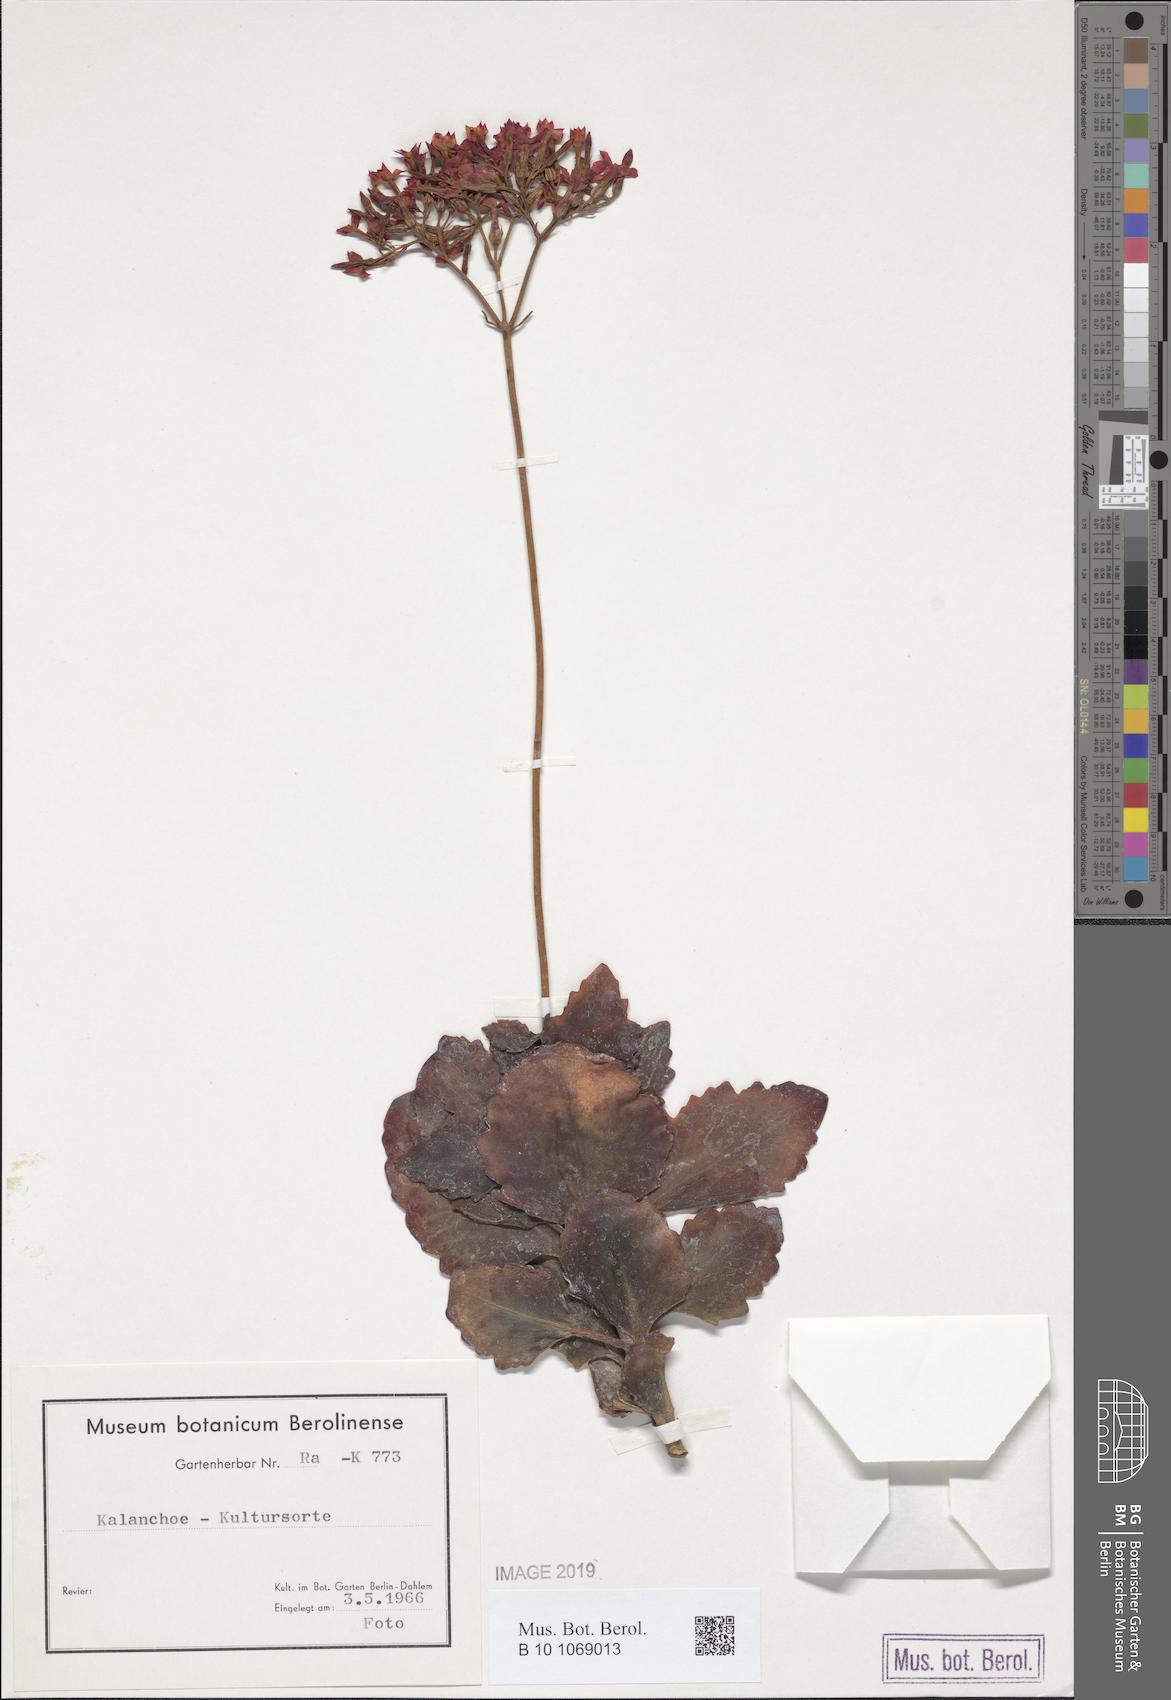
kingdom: Plantae
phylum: Tracheophyta
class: Magnoliopsida
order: Saxifragales
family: Crassulaceae
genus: Kalanchoe
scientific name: Kalanchoe
